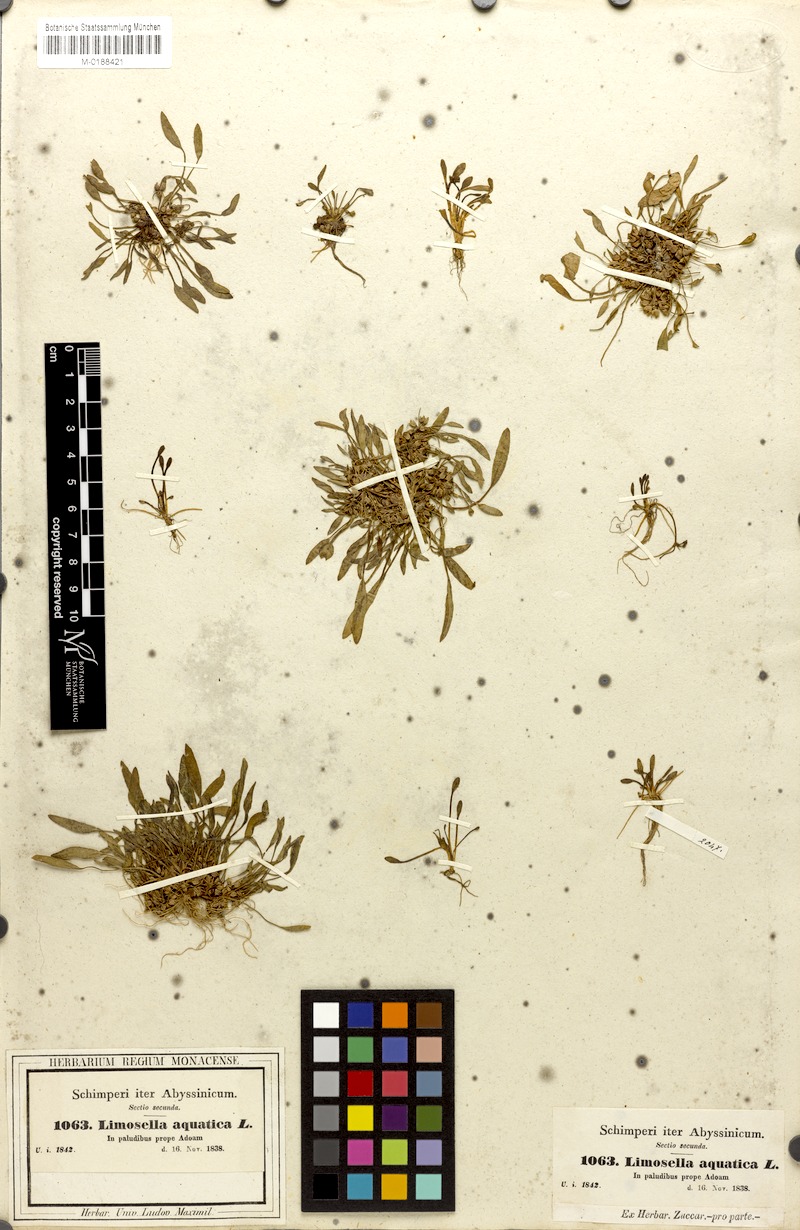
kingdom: Plantae
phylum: Tracheophyta
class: Magnoliopsida
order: Lamiales
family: Scrophulariaceae
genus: Limosella
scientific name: Limosella aquatica
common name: Mudwort
